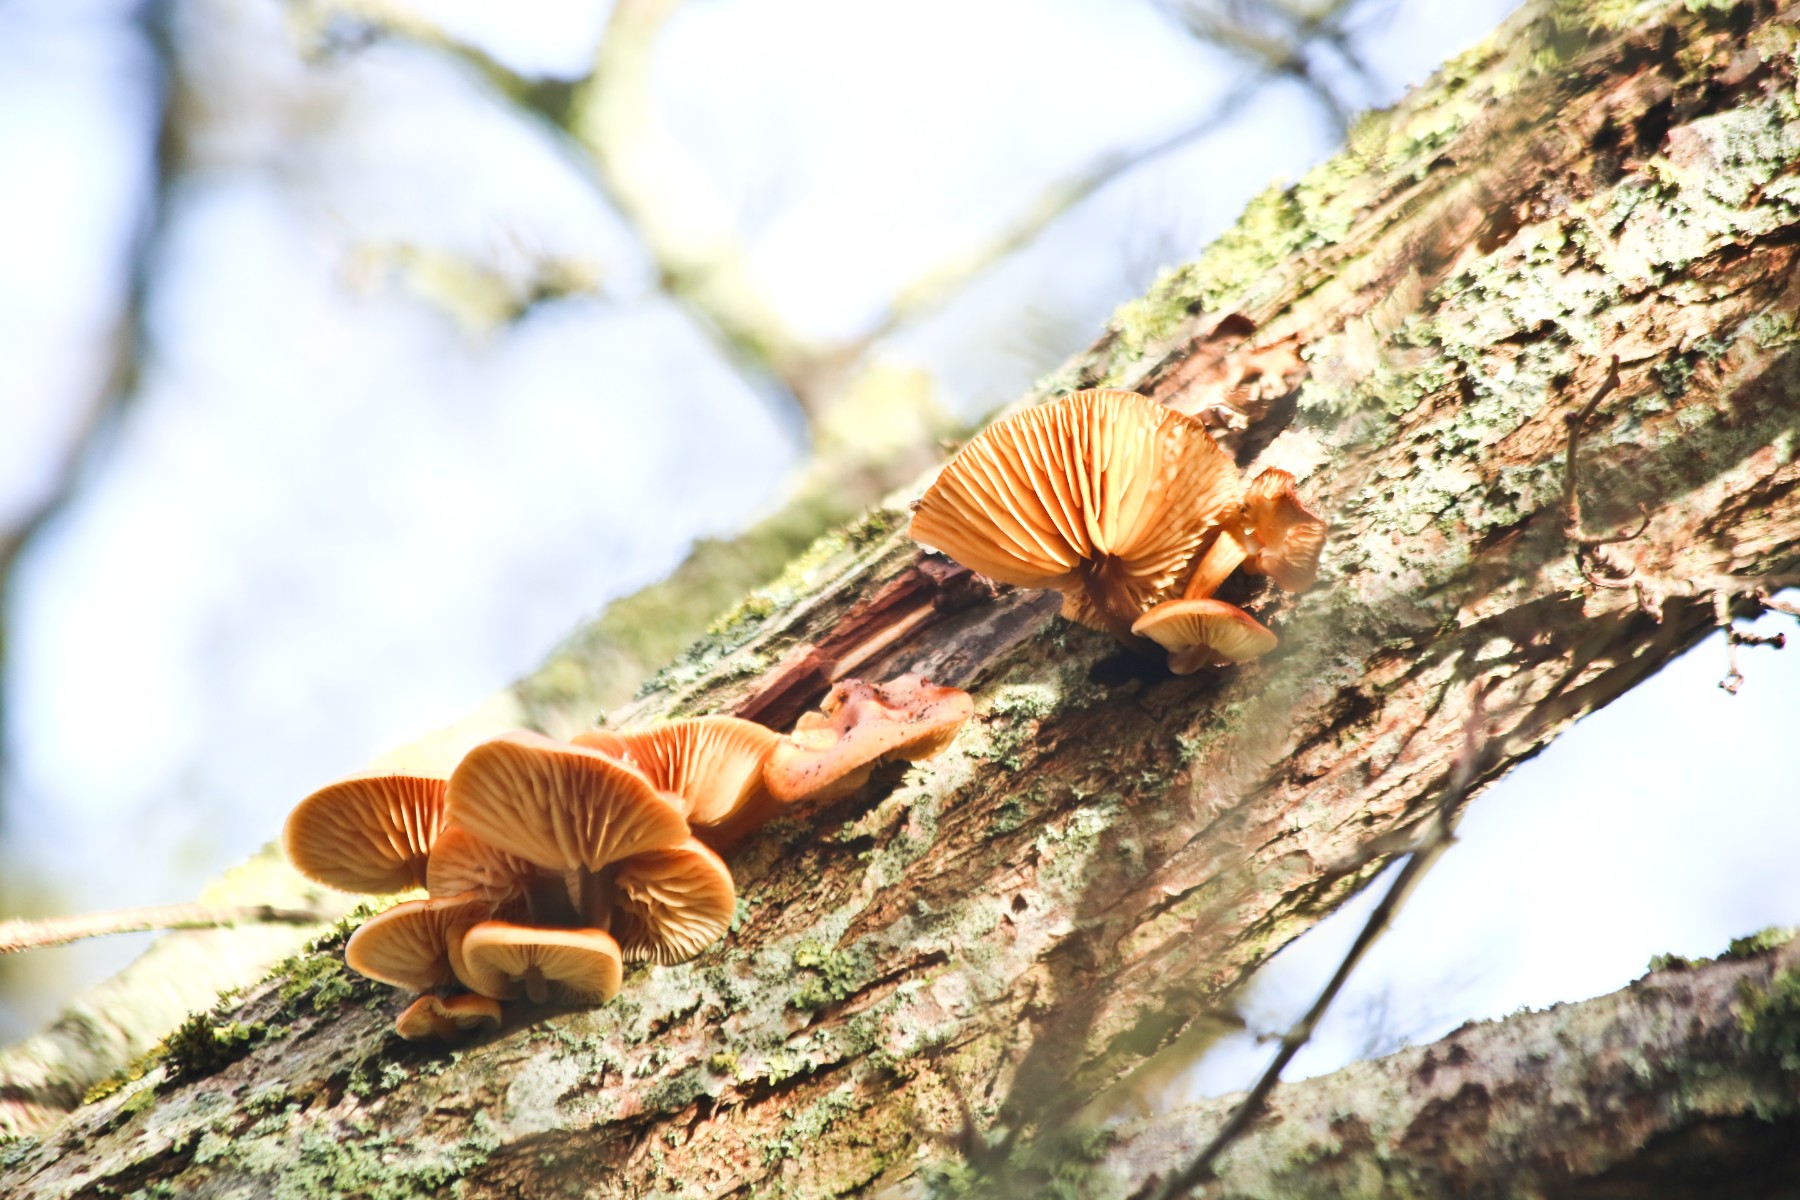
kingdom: Fungi
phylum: Basidiomycota
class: Agaricomycetes
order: Agaricales
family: Physalacriaceae
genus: Flammulina
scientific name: Flammulina
